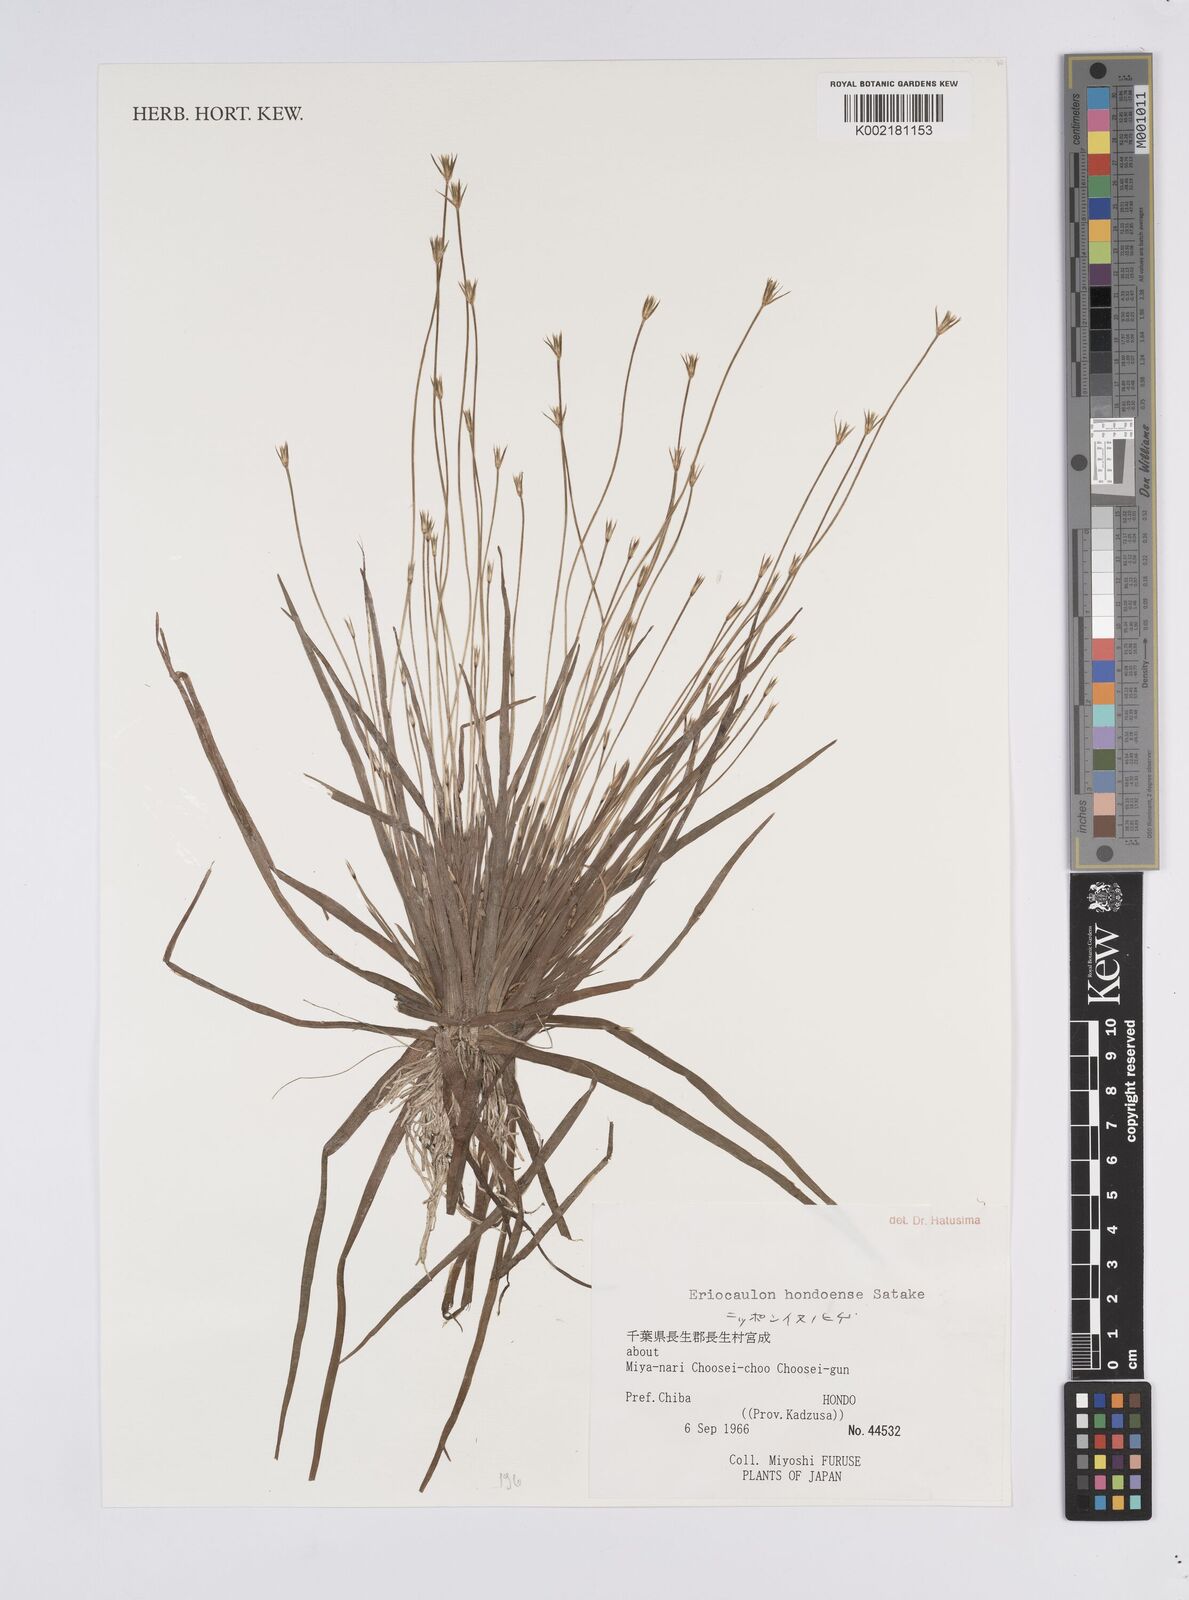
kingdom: Plantae
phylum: Tracheophyta
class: Liliopsida
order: Poales
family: Eriocaulaceae
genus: Eriocaulon
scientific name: Eriocaulon taquetii
